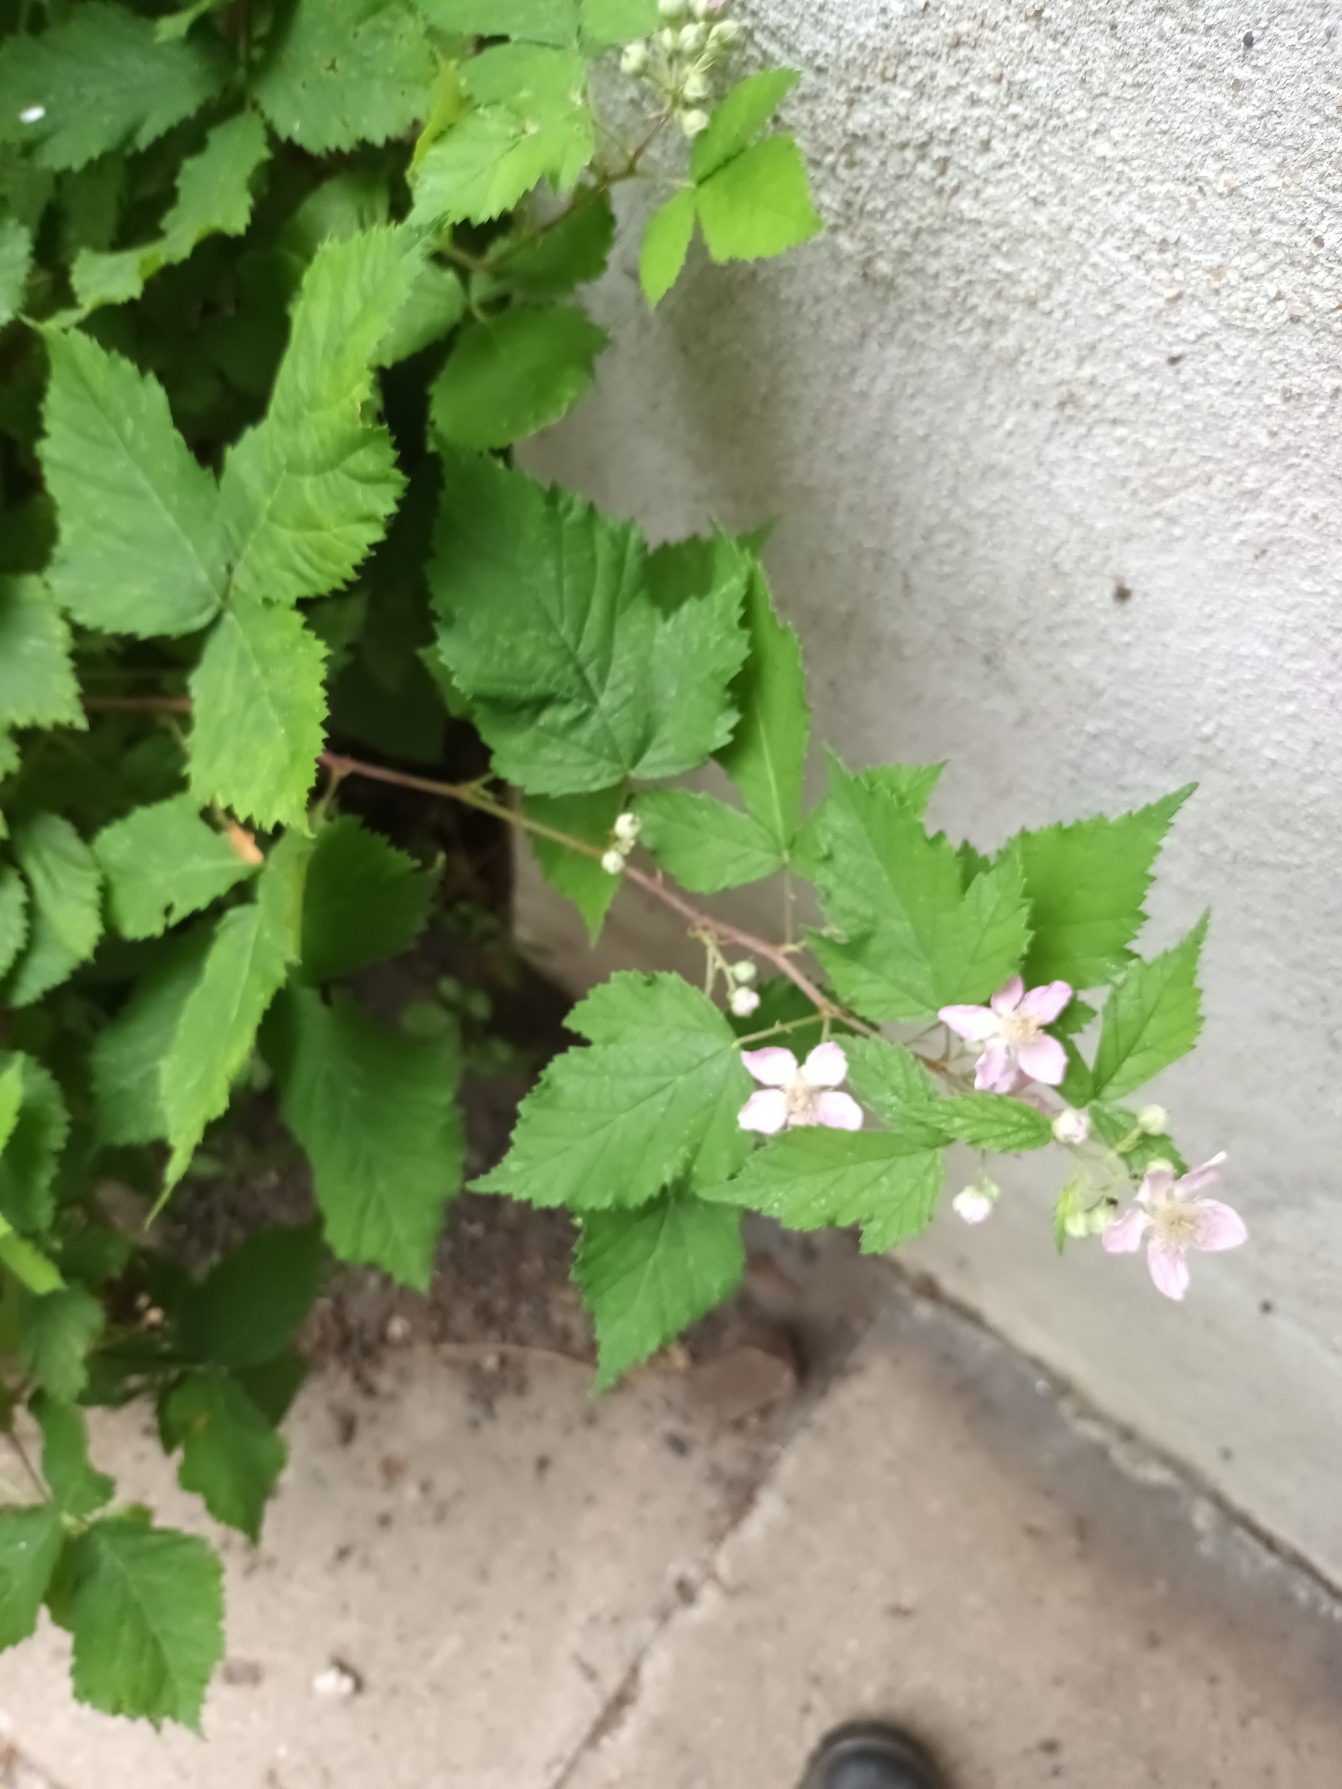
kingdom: Plantae
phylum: Tracheophyta
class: Magnoliopsida
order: Rosales
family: Rosaceae
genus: Rubus
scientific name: Rubus
